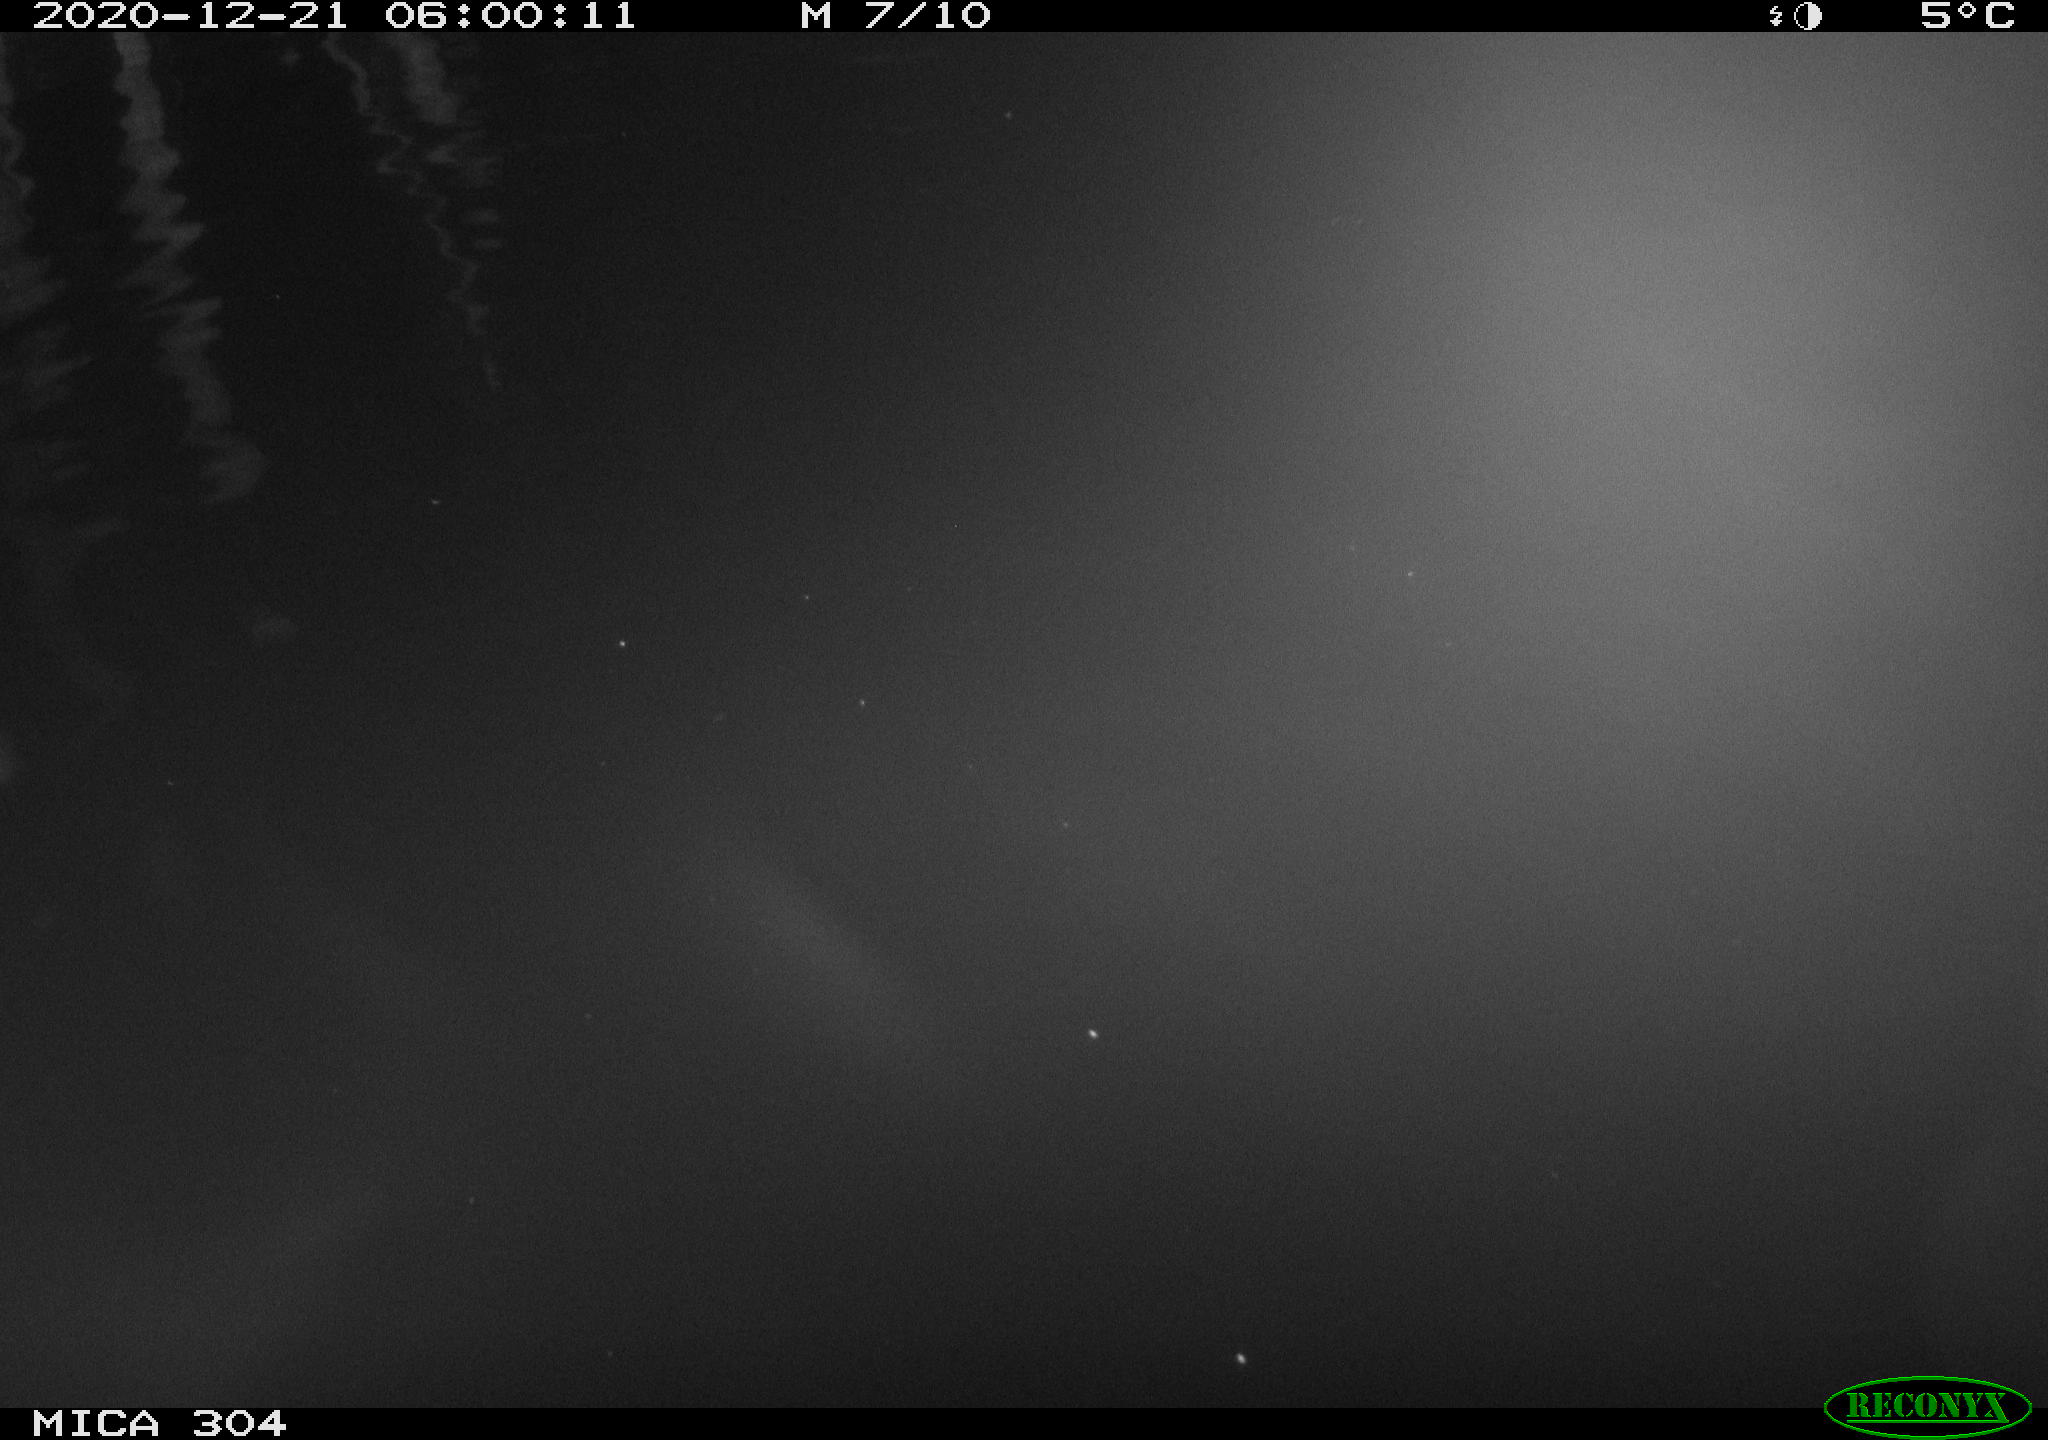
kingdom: Animalia
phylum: Chordata
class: Aves
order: Anseriformes
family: Anatidae
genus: Anas
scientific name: Anas platyrhynchos
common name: Mallard
